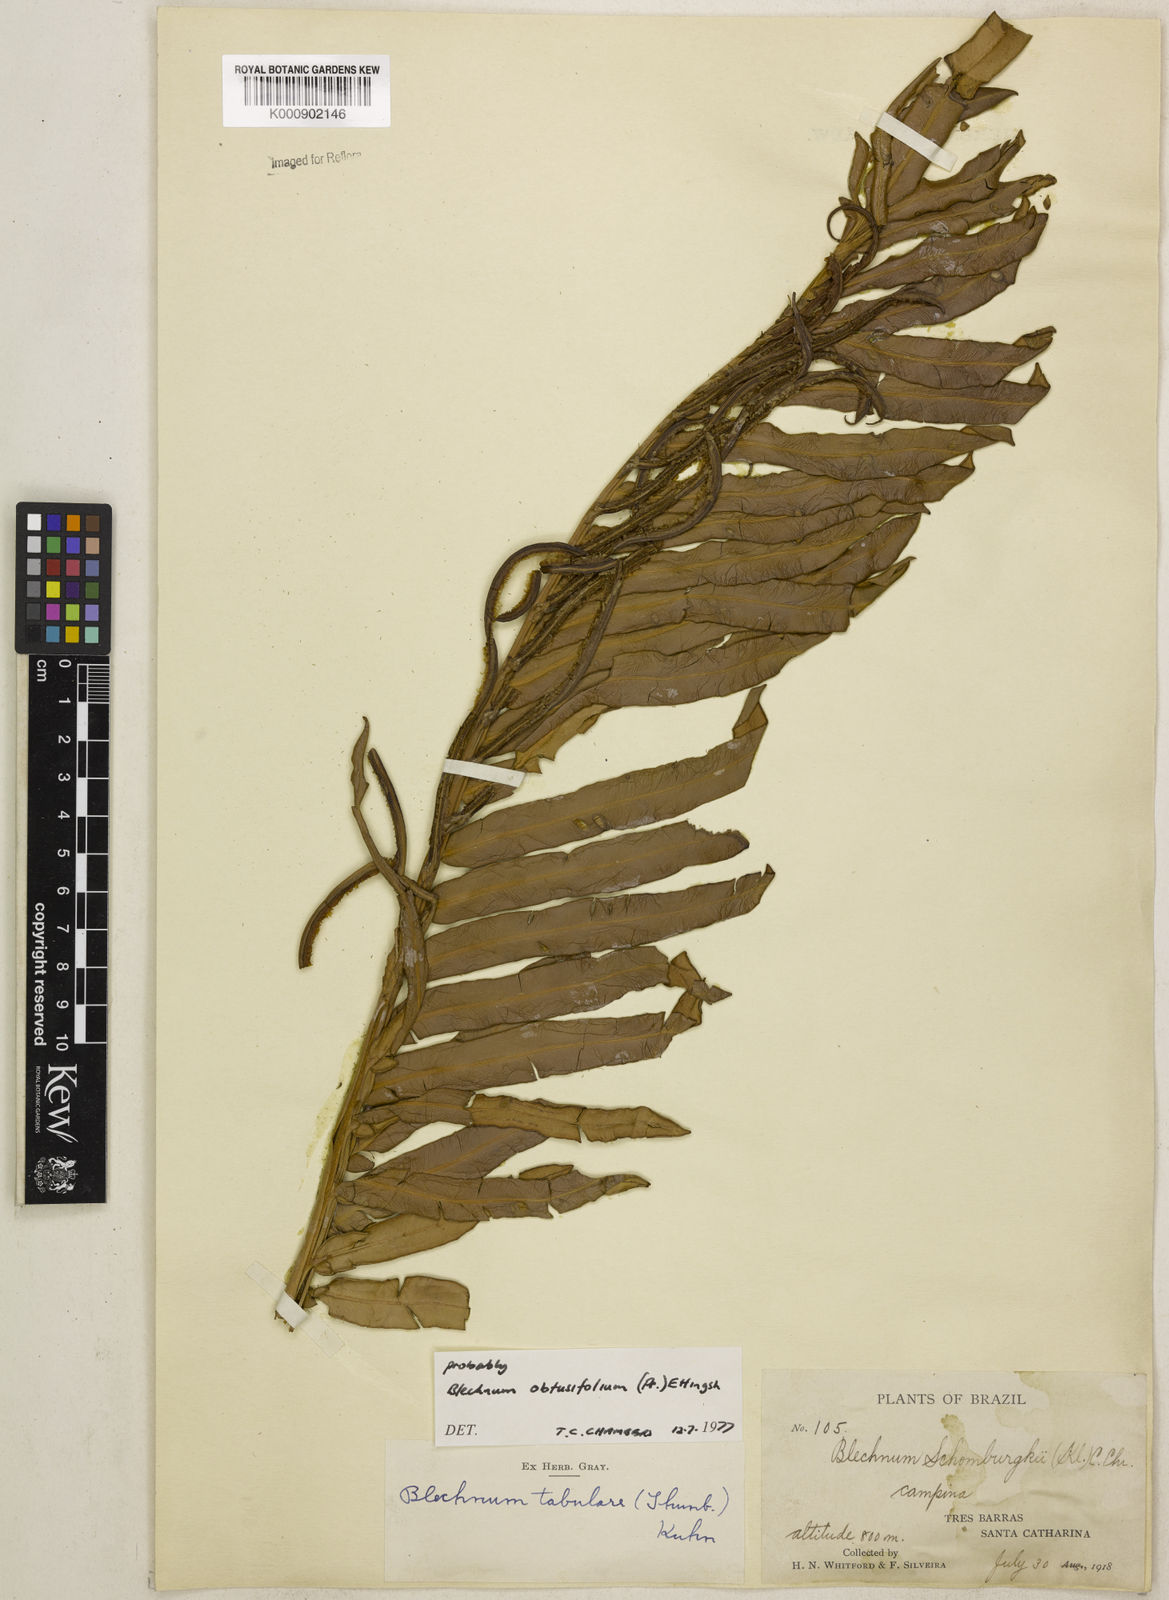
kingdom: Plantae
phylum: Tracheophyta
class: Polypodiopsida
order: Polypodiales
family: Blechnaceae
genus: Lomariocycas
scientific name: Lomariocycas obtusifolia
